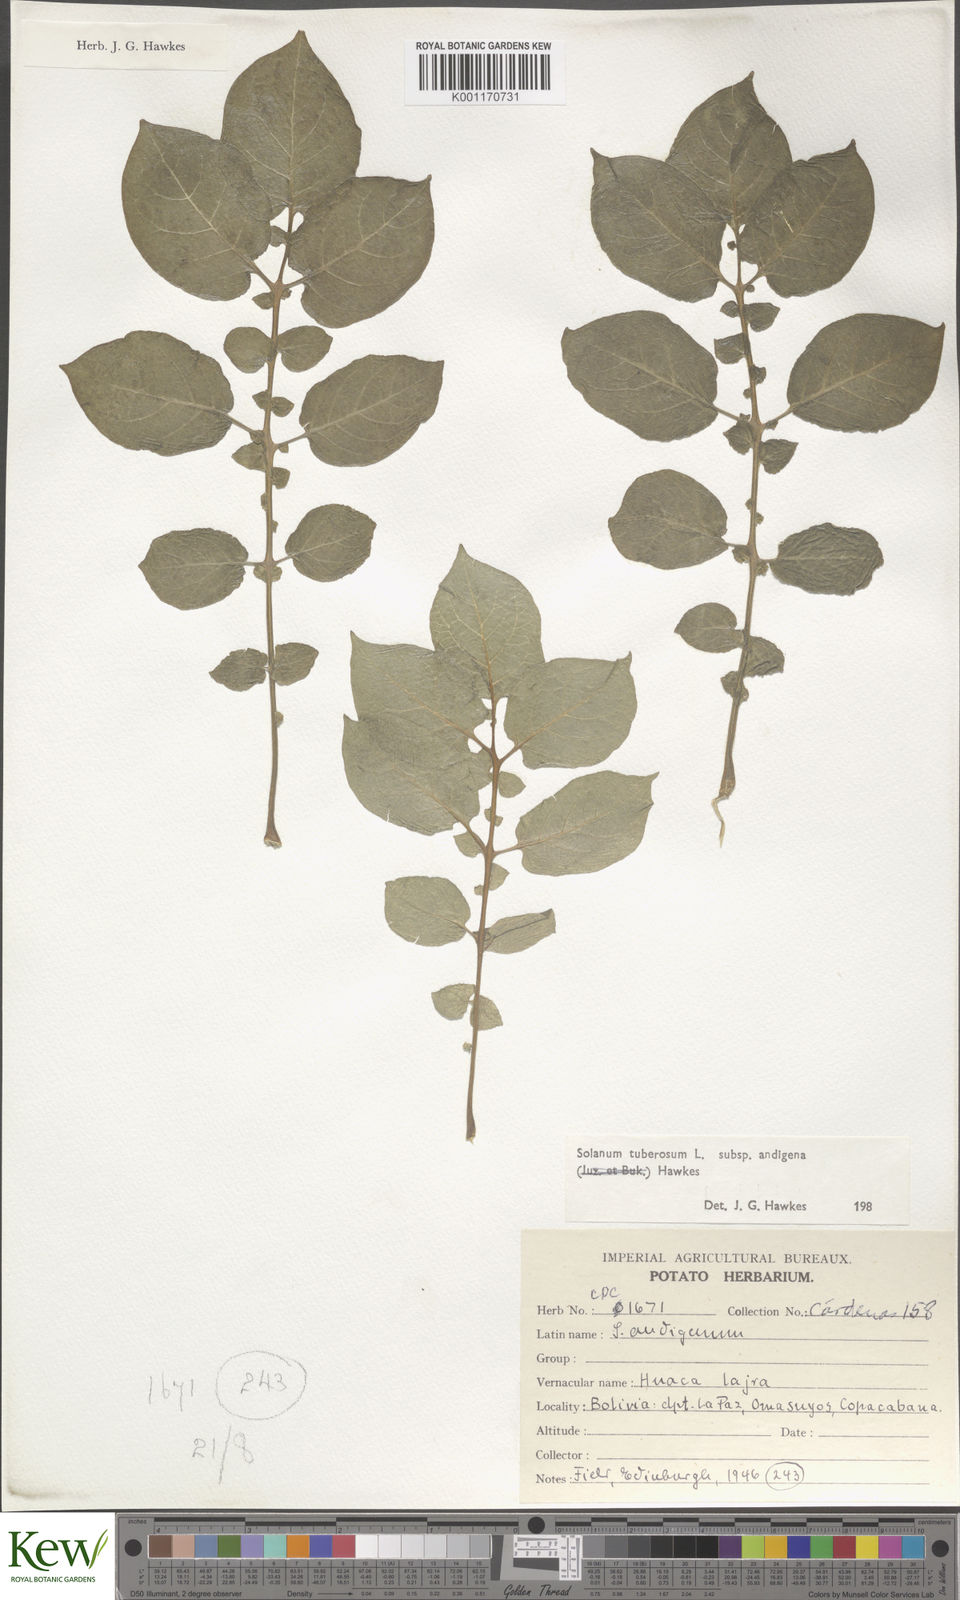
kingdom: Plantae
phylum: Tracheophyta
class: Magnoliopsida
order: Solanales
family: Solanaceae
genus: Solanum
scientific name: Solanum tuberosum
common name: Potato
